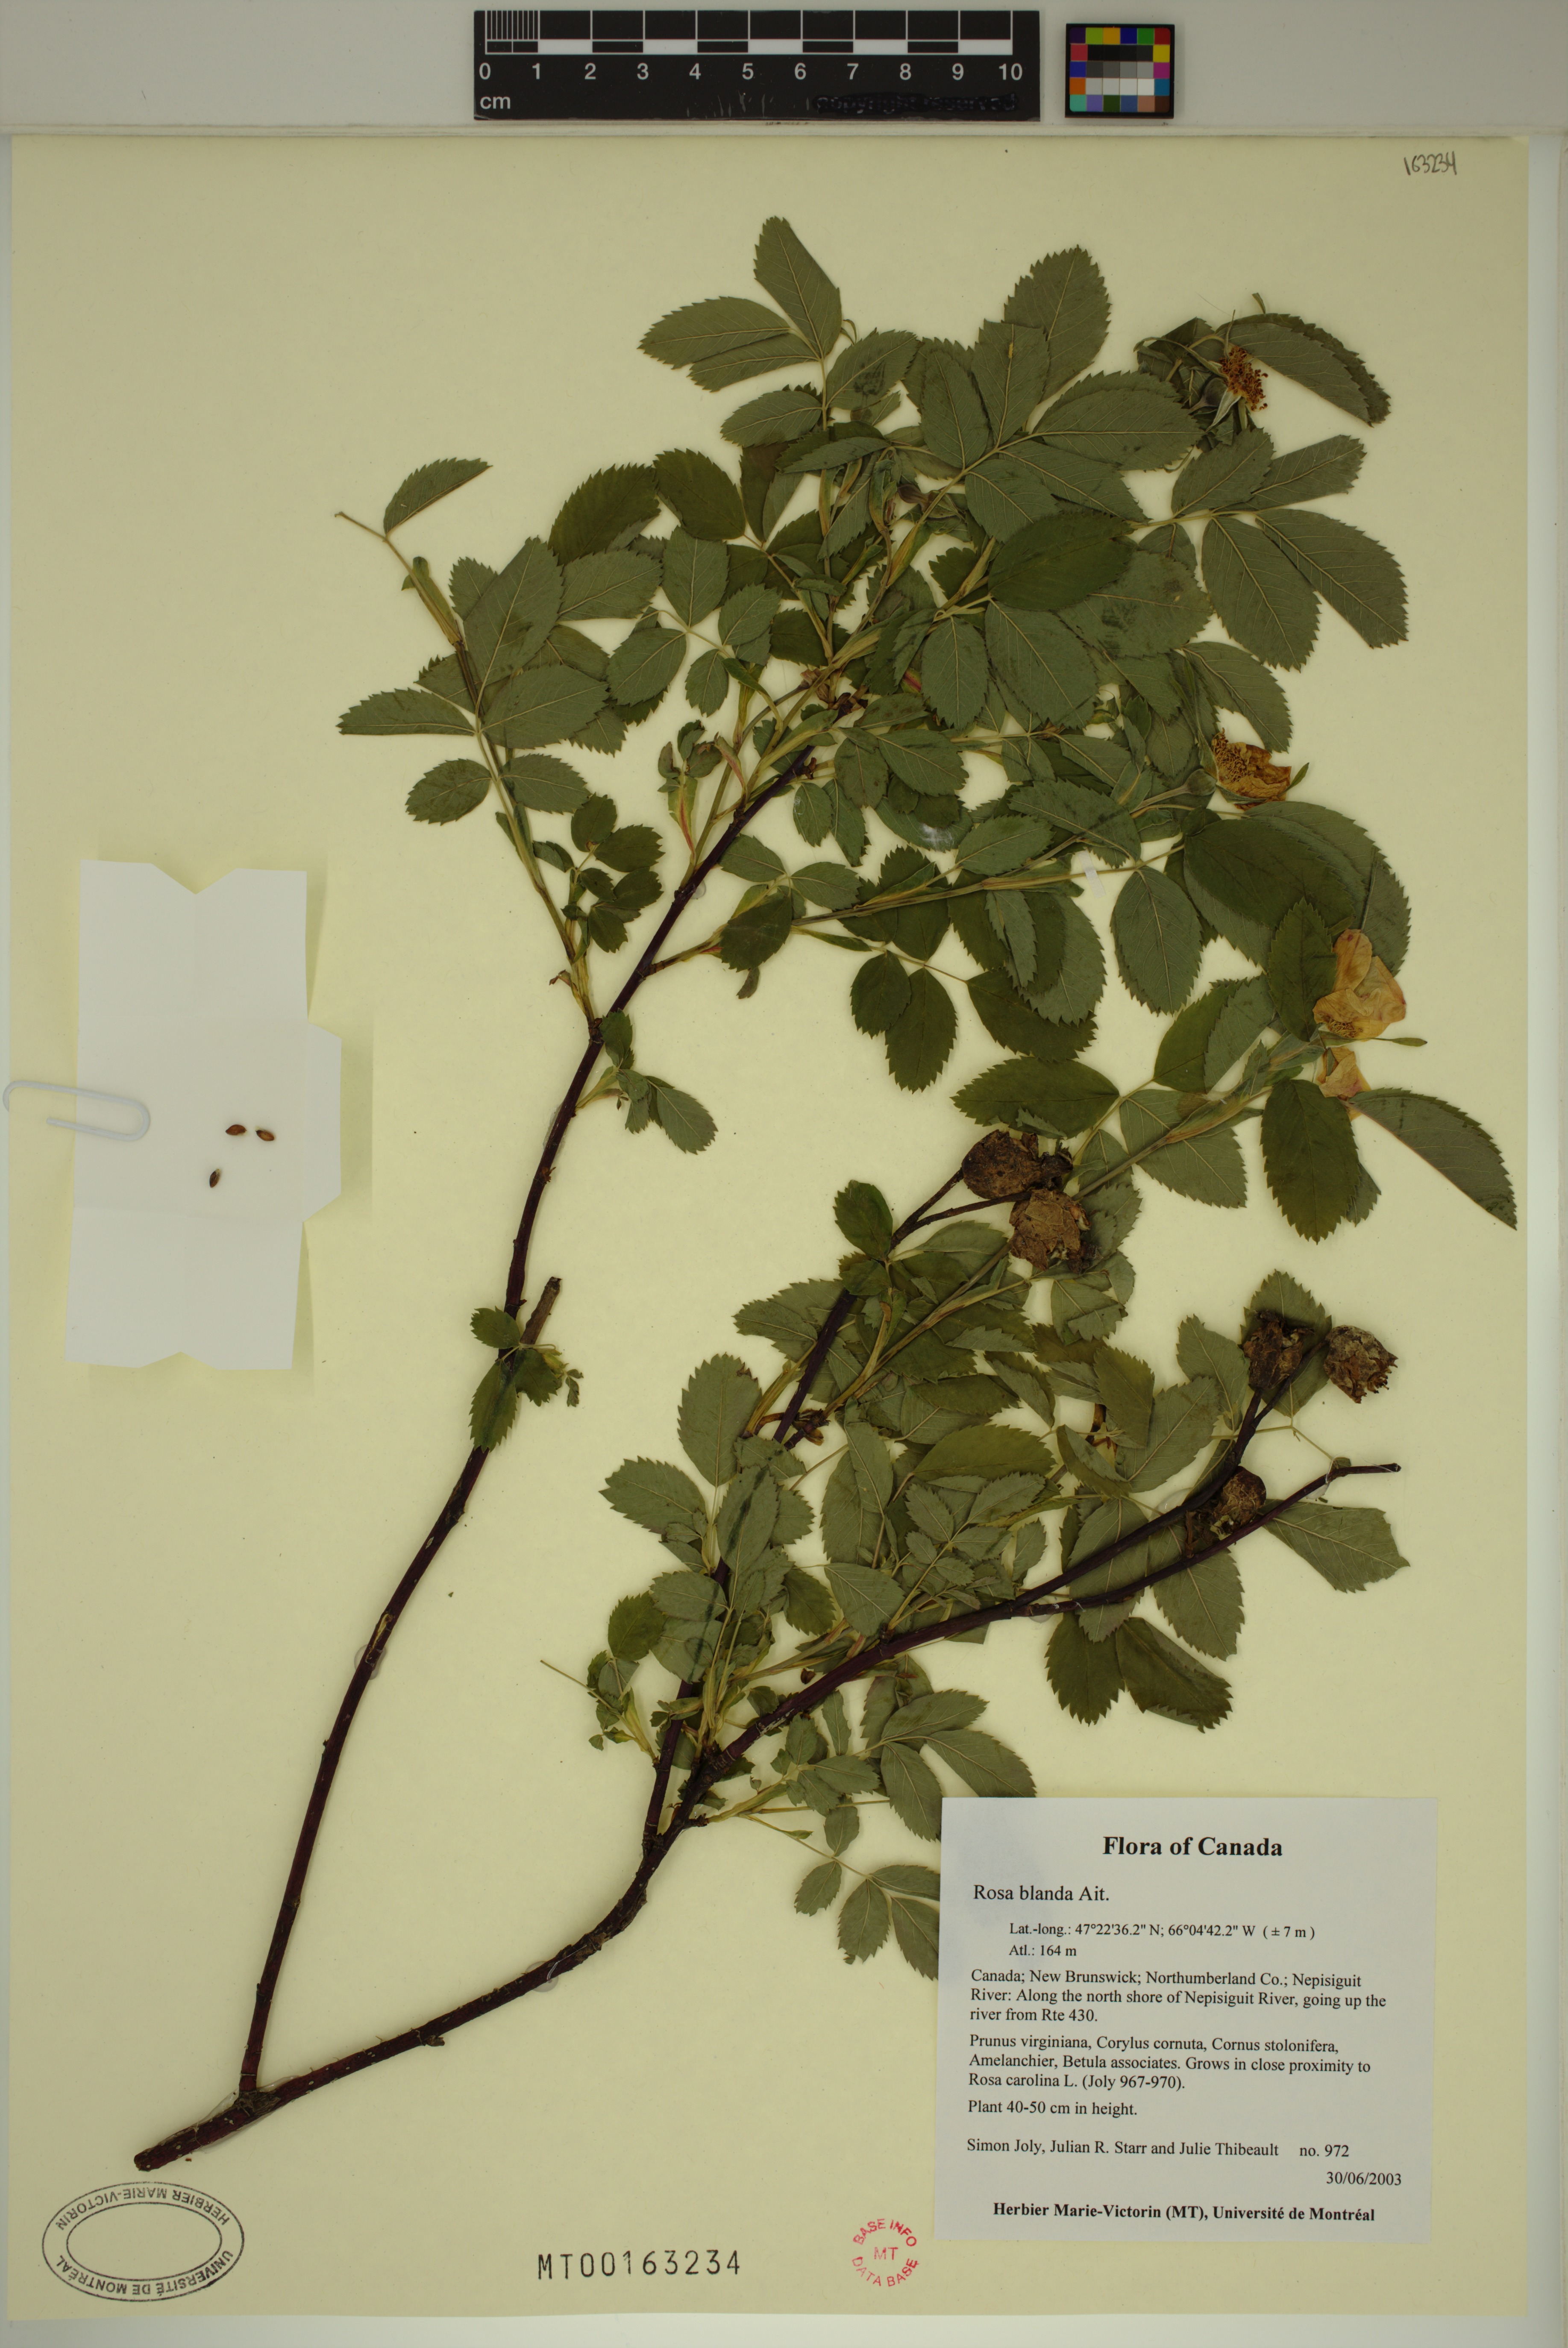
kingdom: Plantae
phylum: Tracheophyta
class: Magnoliopsida
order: Rosales
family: Rosaceae
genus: Rosa
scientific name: Rosa blanda
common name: Smooth rose
